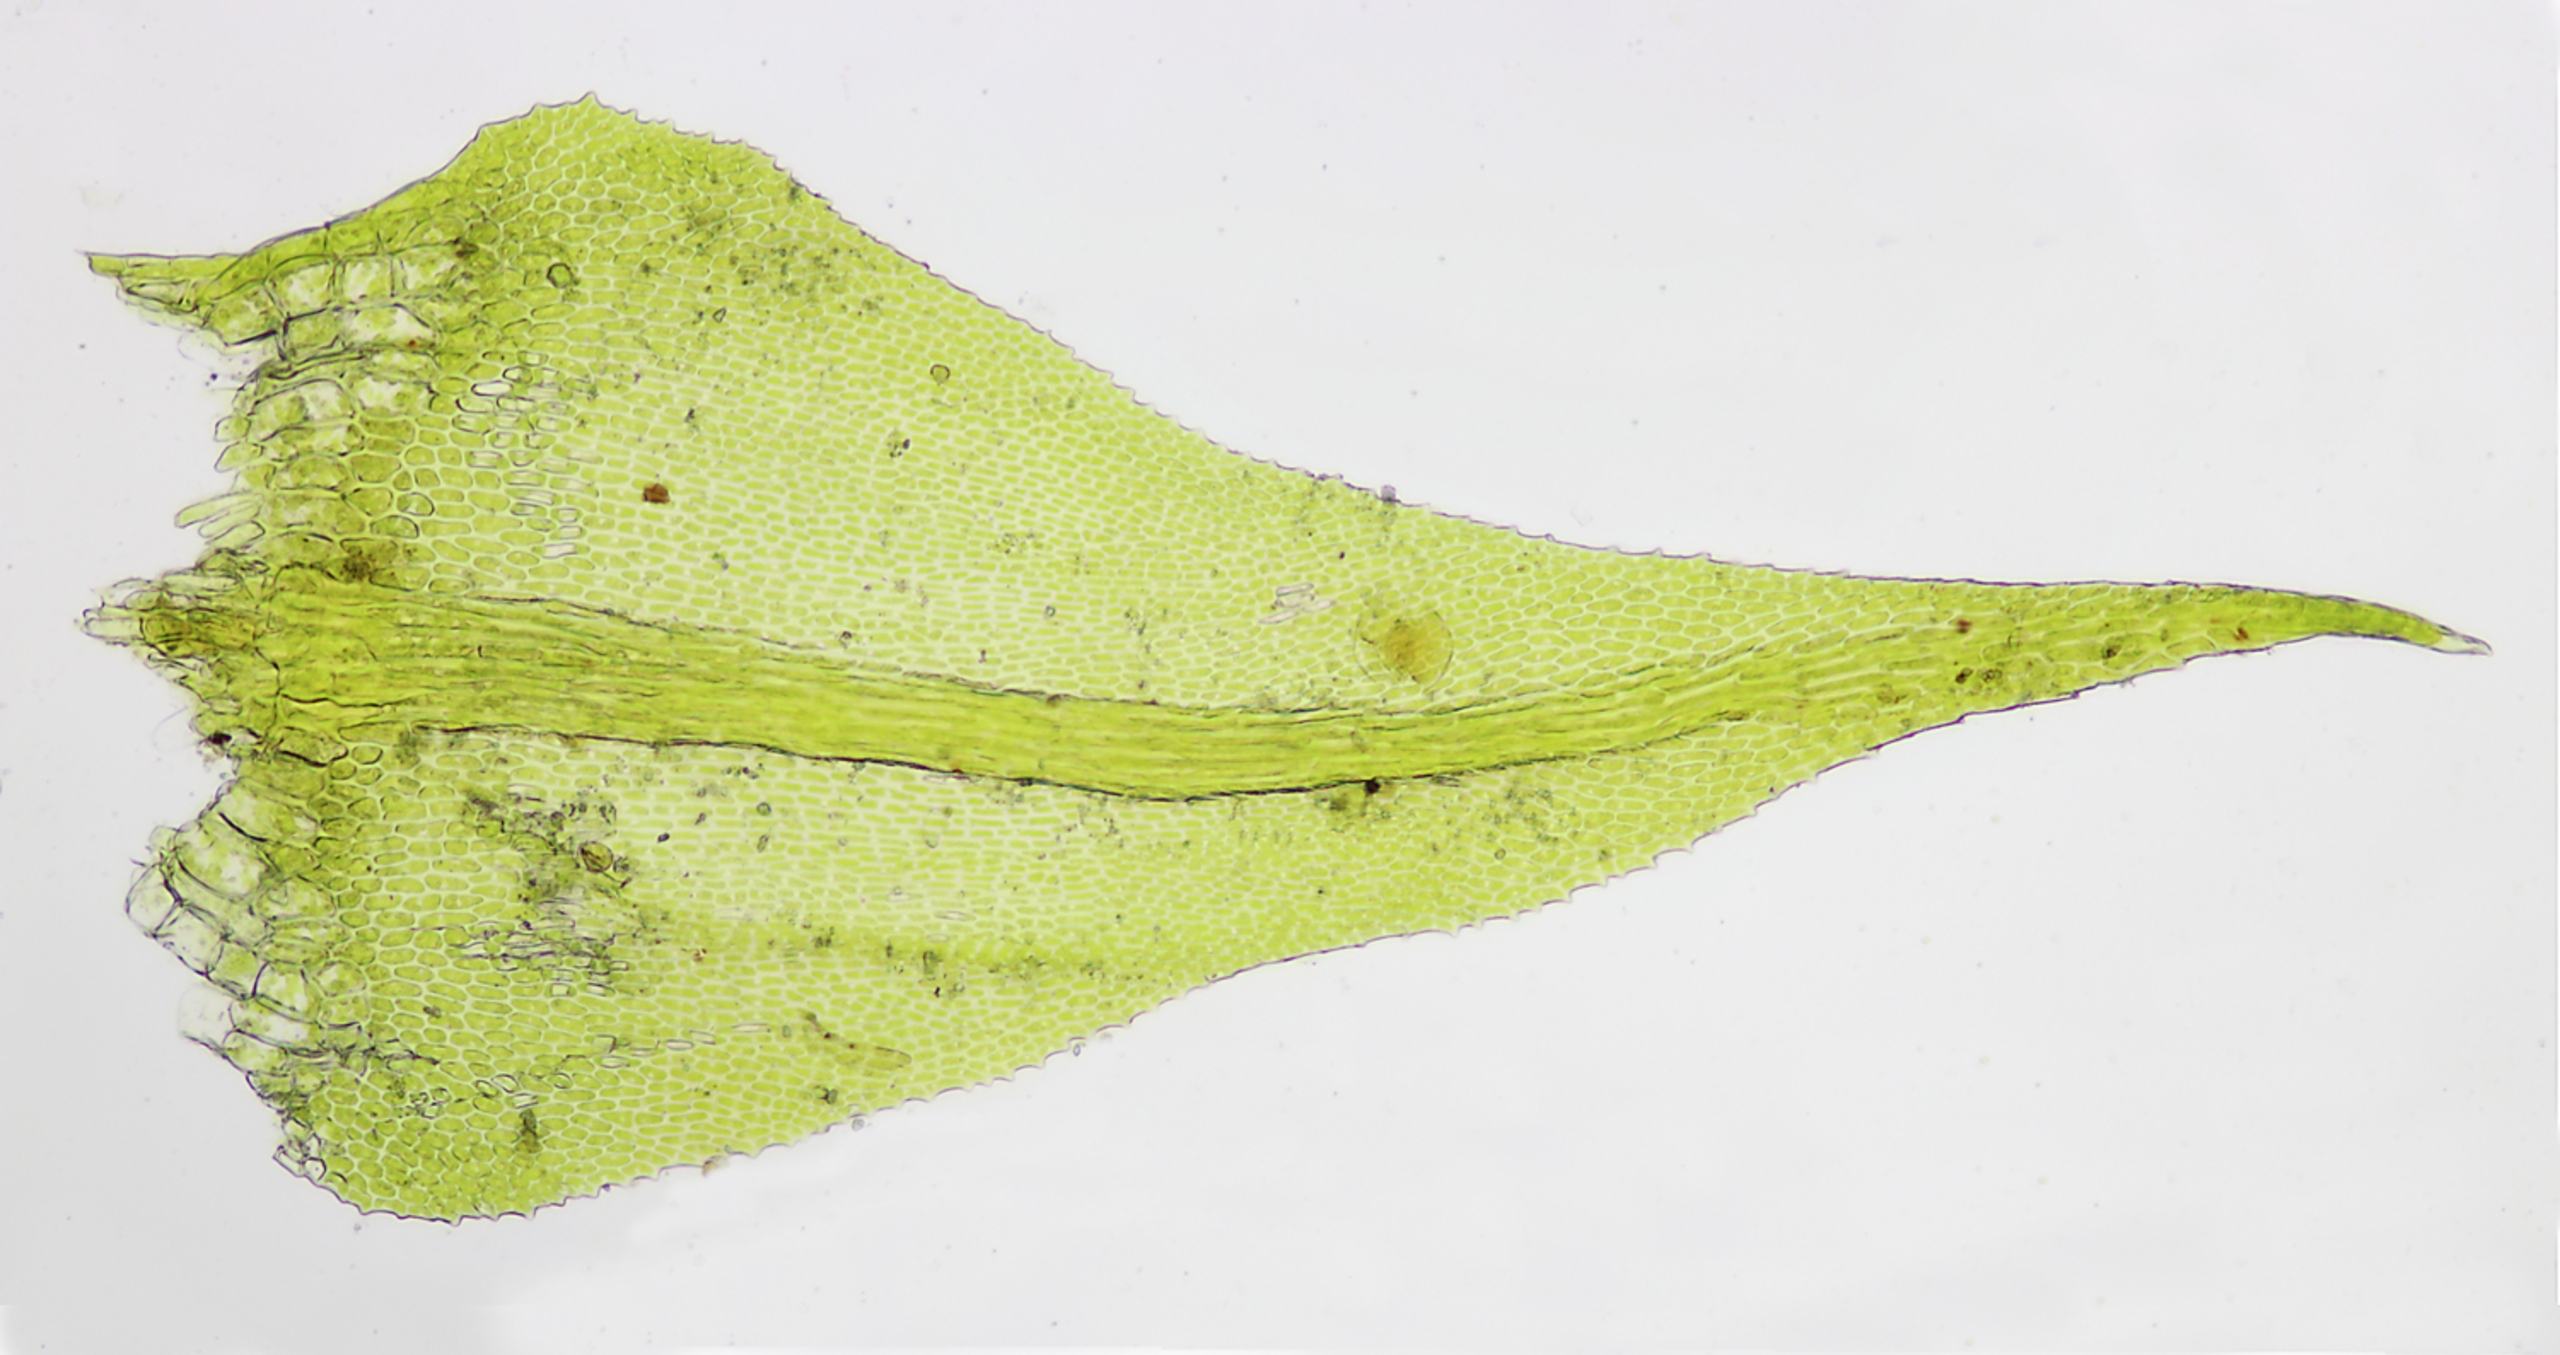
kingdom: Plantae
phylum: Bryophyta
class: Bryopsida
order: Hypnales
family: Amblystegiaceae
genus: Cratoneuron
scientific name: Cratoneuron filicinum
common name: Grøn eremitmos
